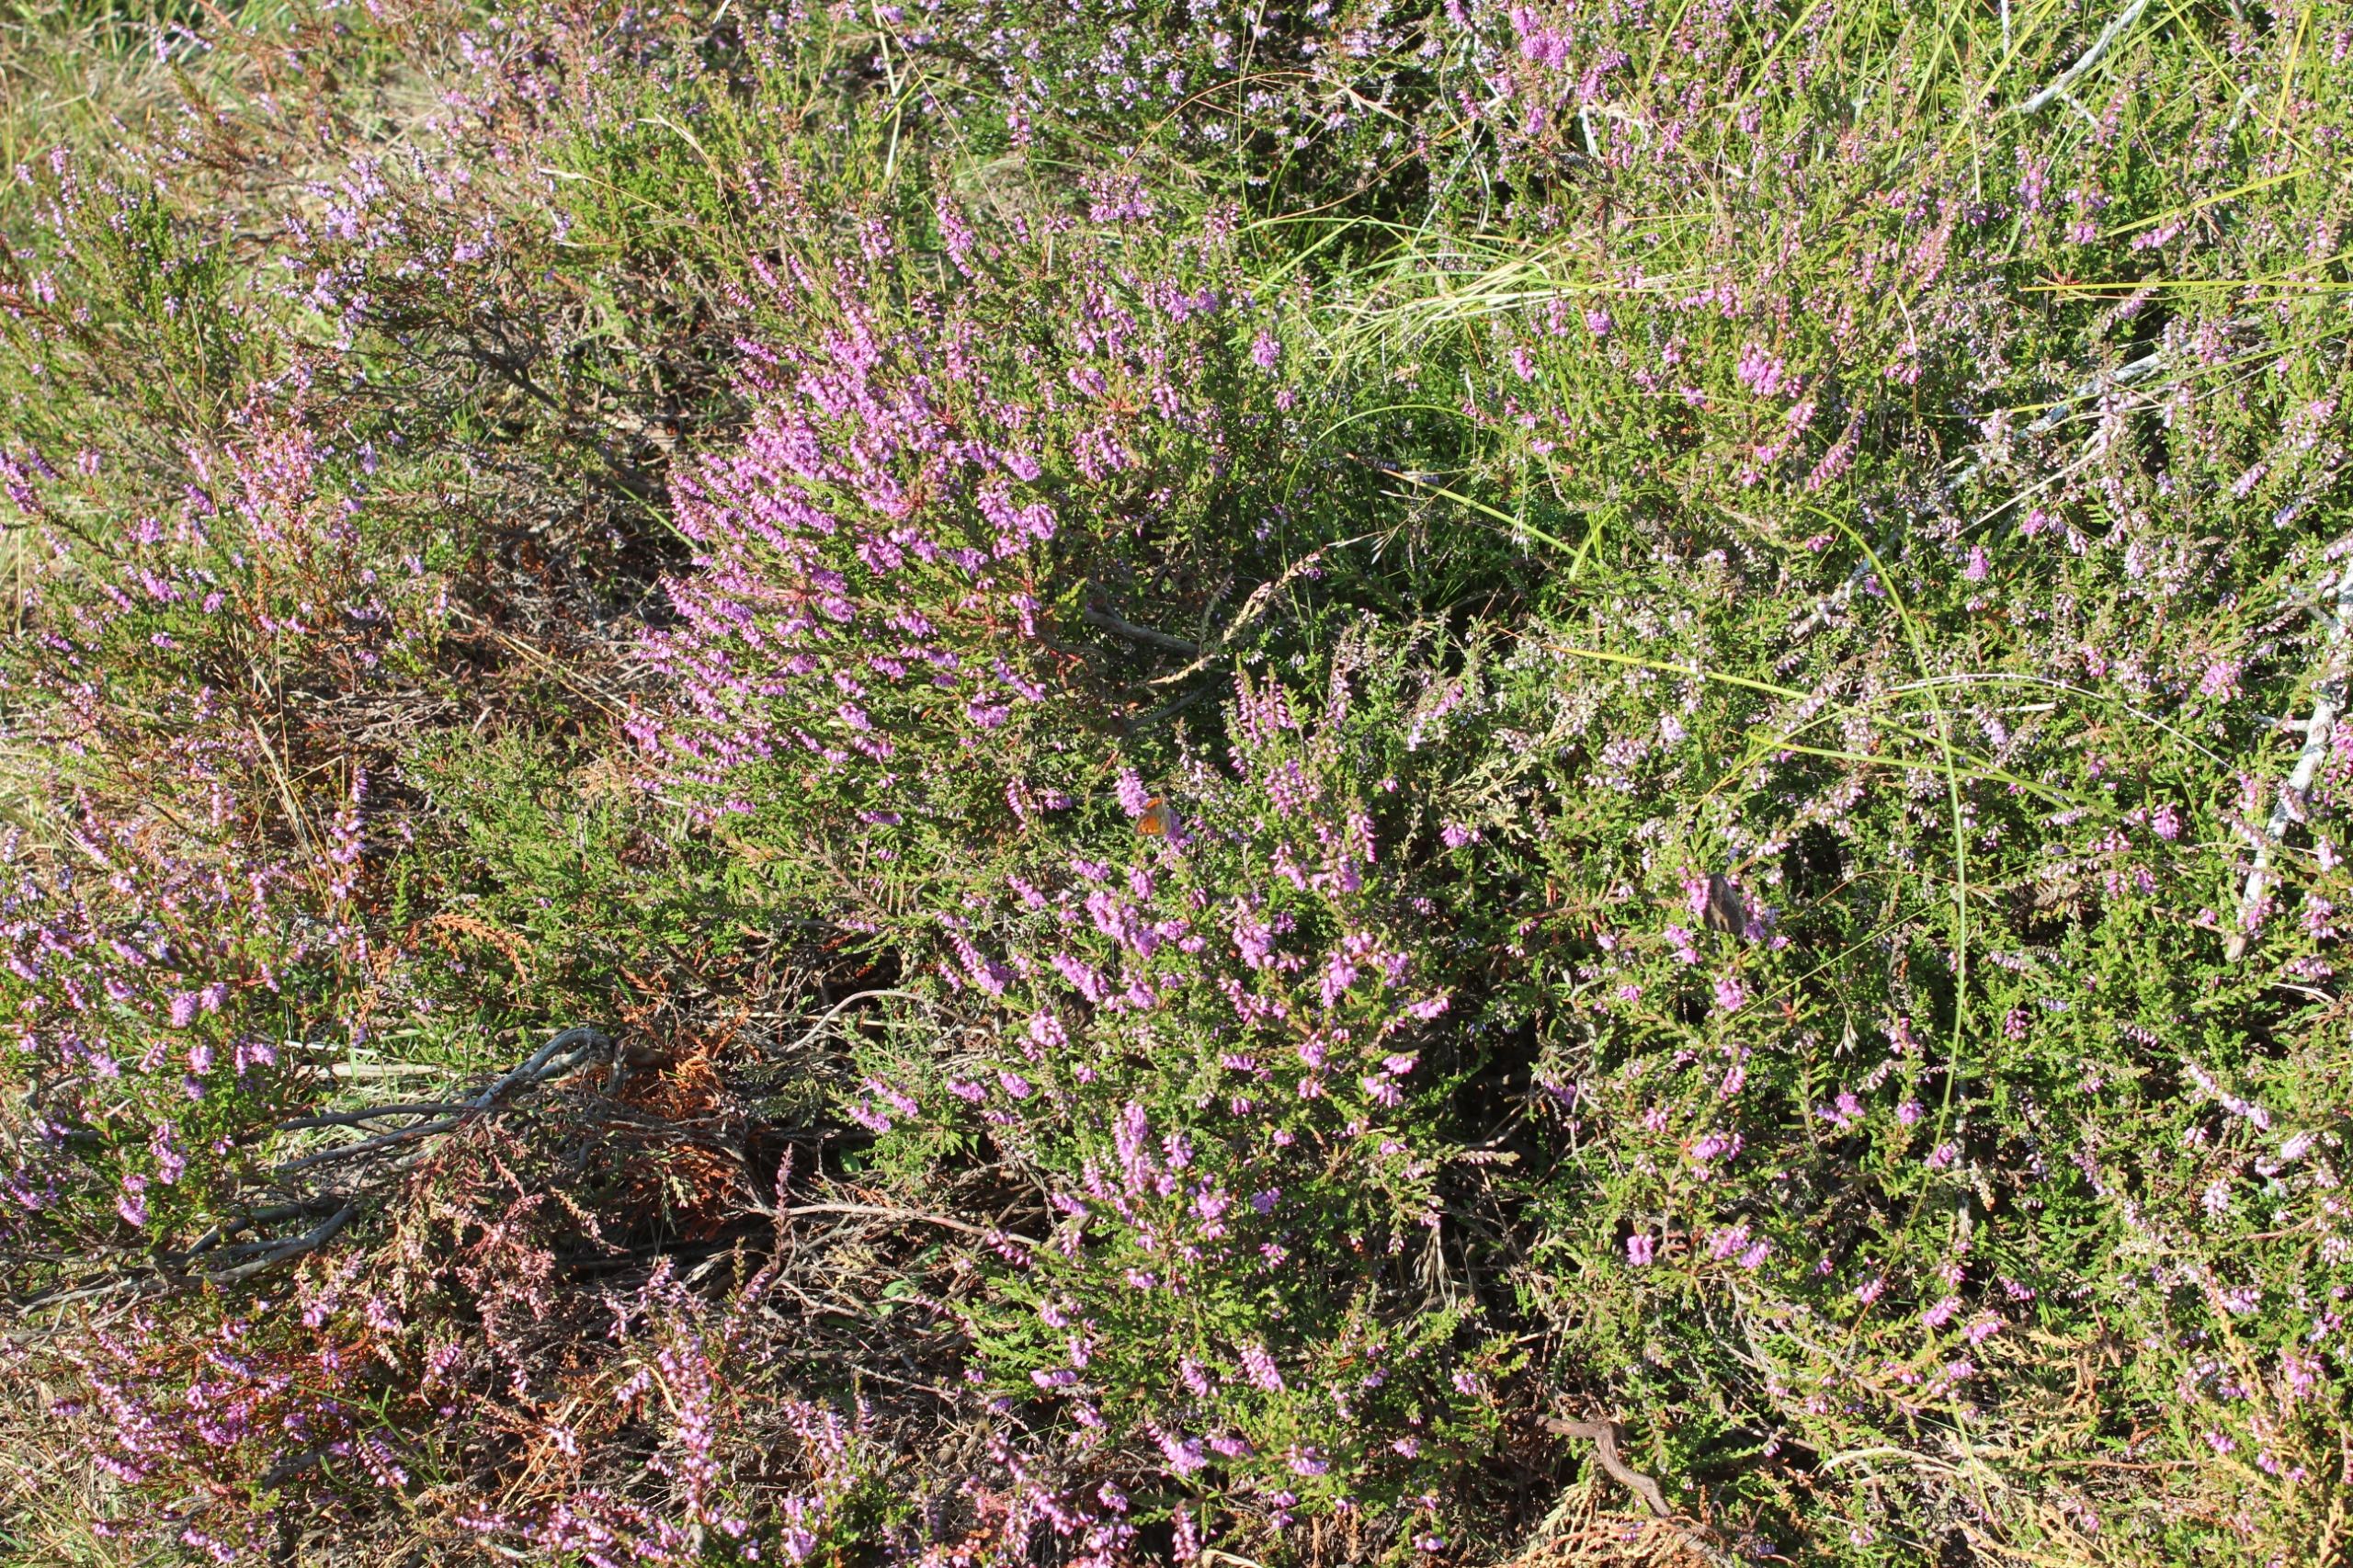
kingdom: Plantae
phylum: Tracheophyta
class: Magnoliopsida
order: Ericales
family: Ericaceae
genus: Calluna
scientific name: Calluna vulgaris
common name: Hedelyng
